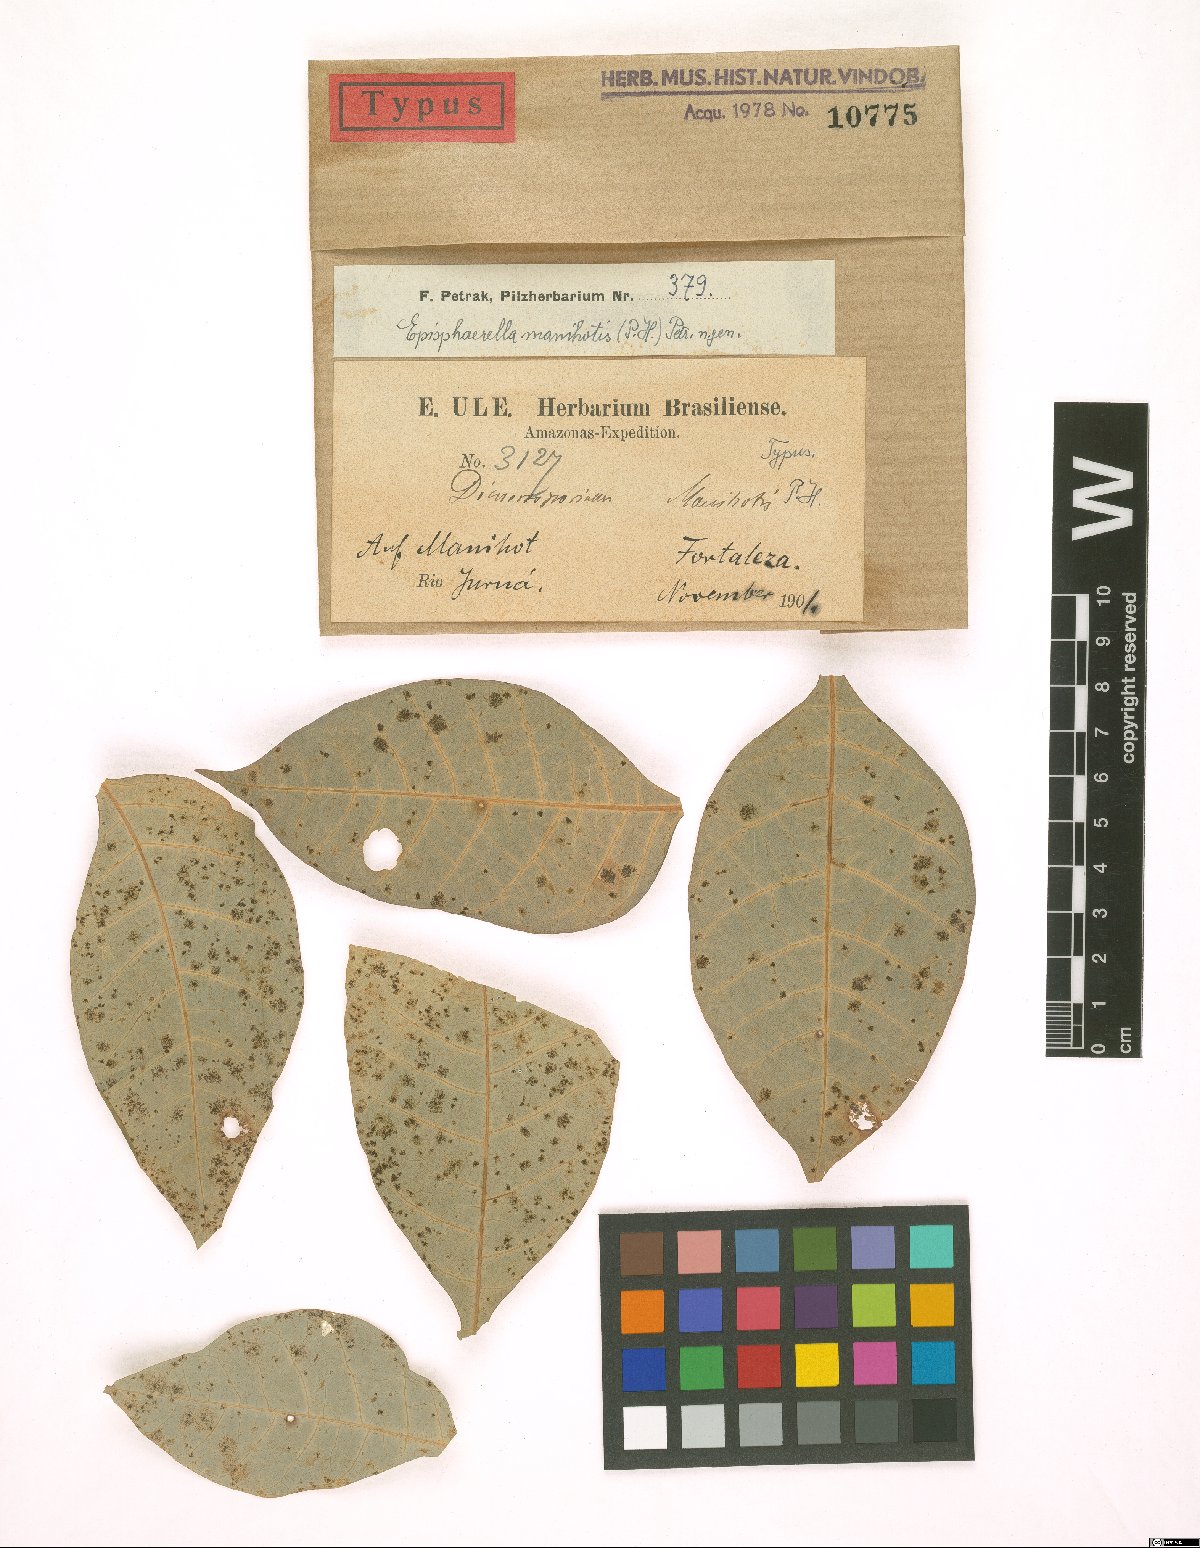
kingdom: Fungi
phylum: Ascomycota
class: Dothideomycetes
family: Pseudoperisporiaceae
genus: Episphaerella
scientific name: Episphaerella manihotis
